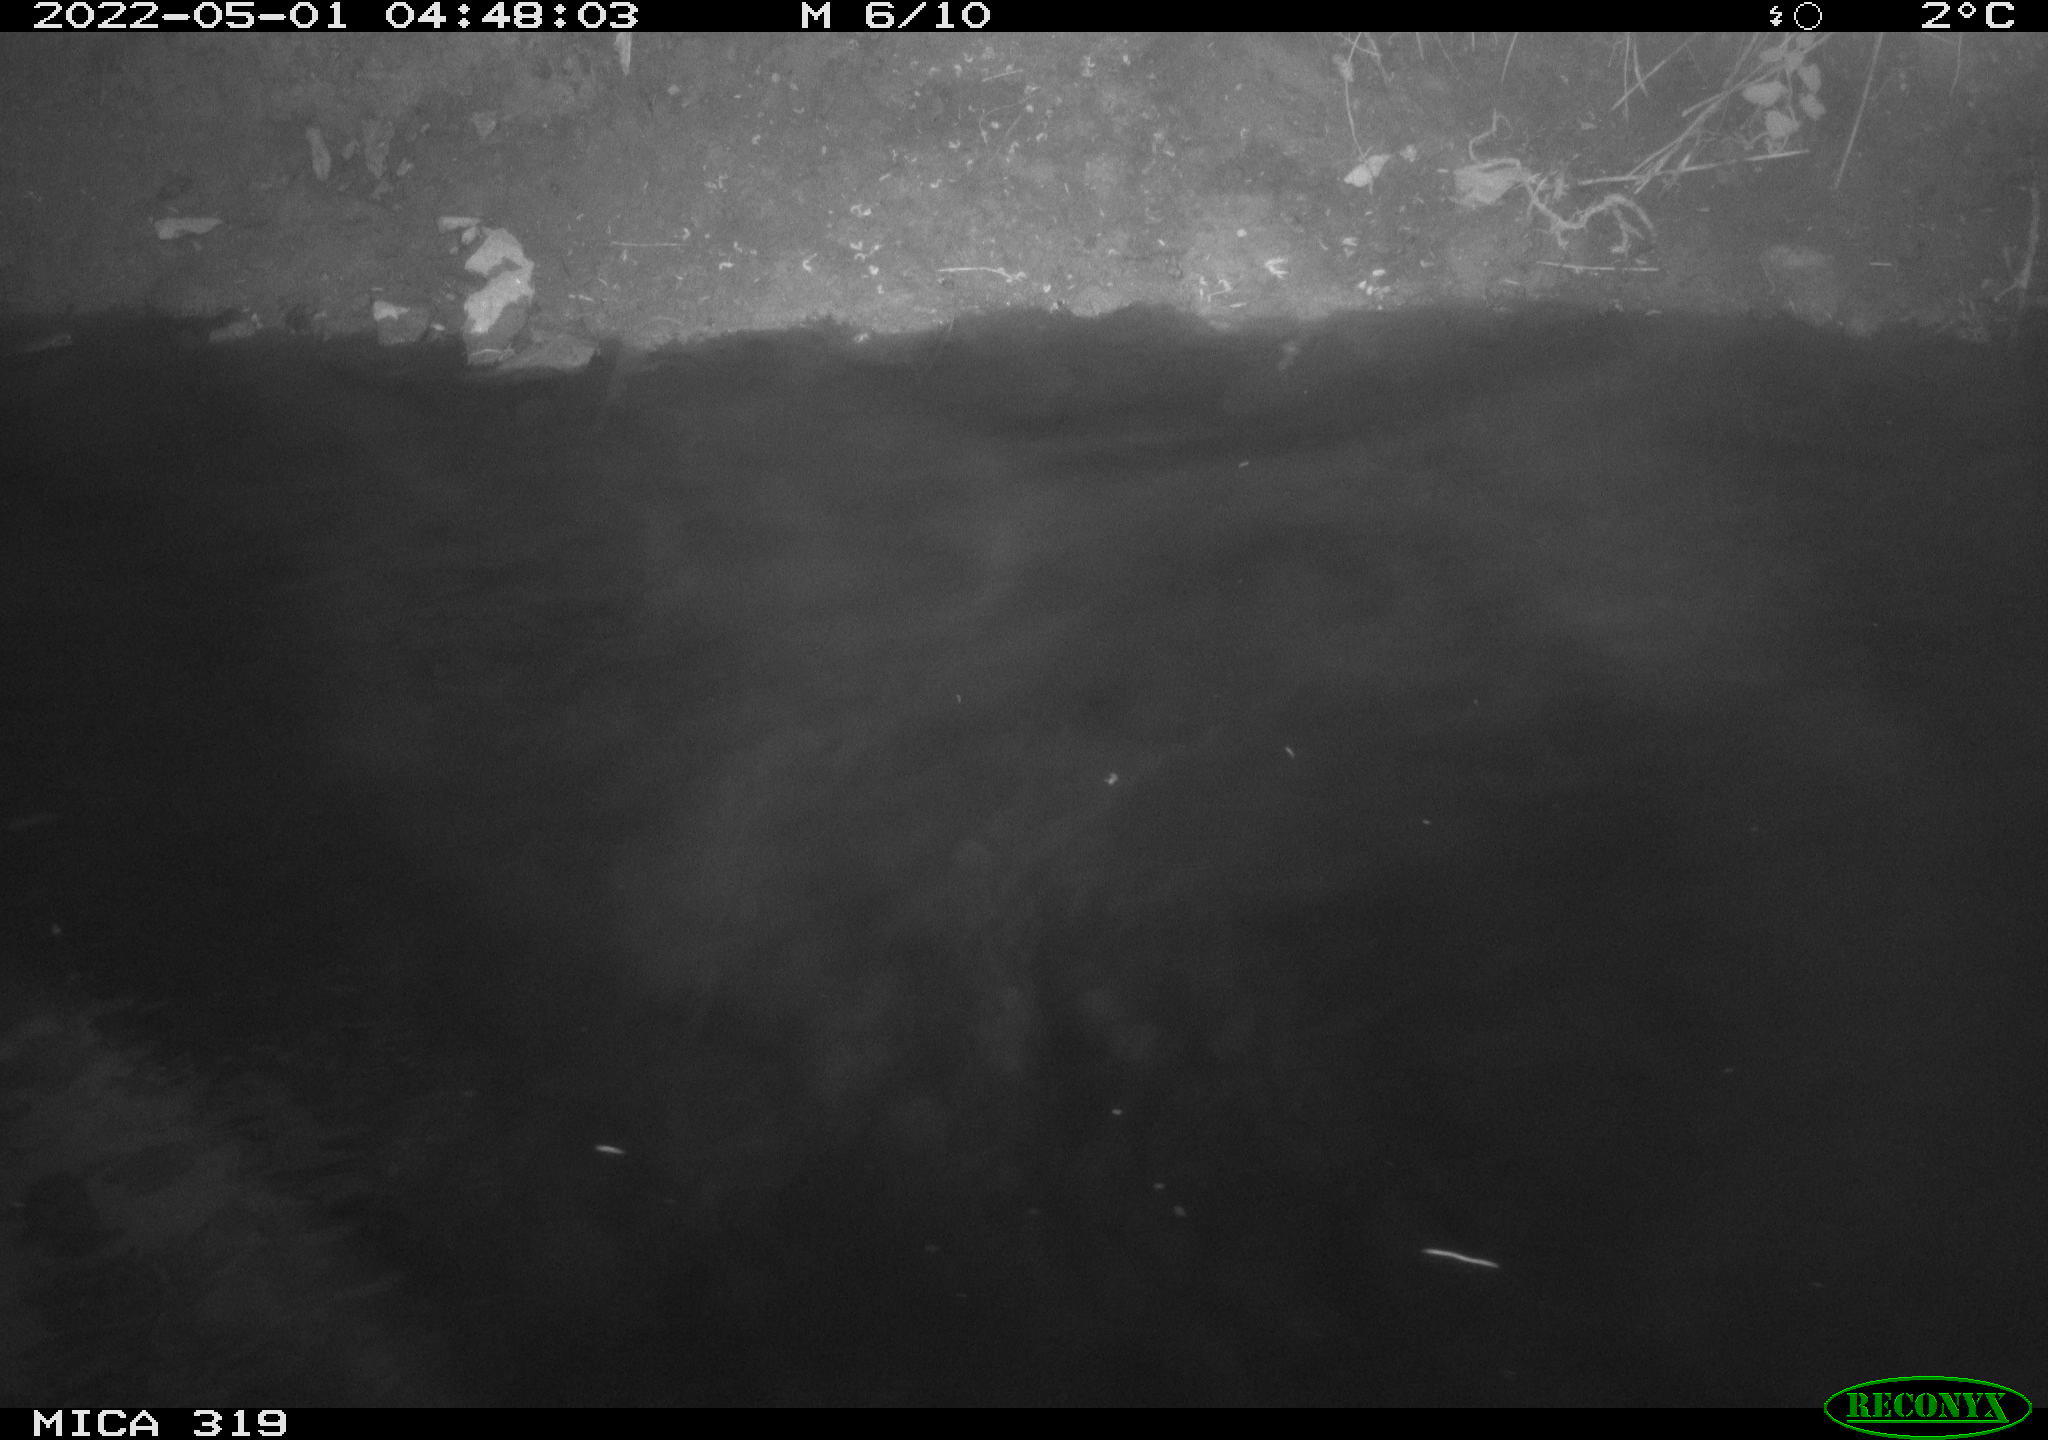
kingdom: Animalia
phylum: Chordata
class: Aves
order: Anseriformes
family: Anatidae
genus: Anas
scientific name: Anas platyrhynchos
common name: Mallard
